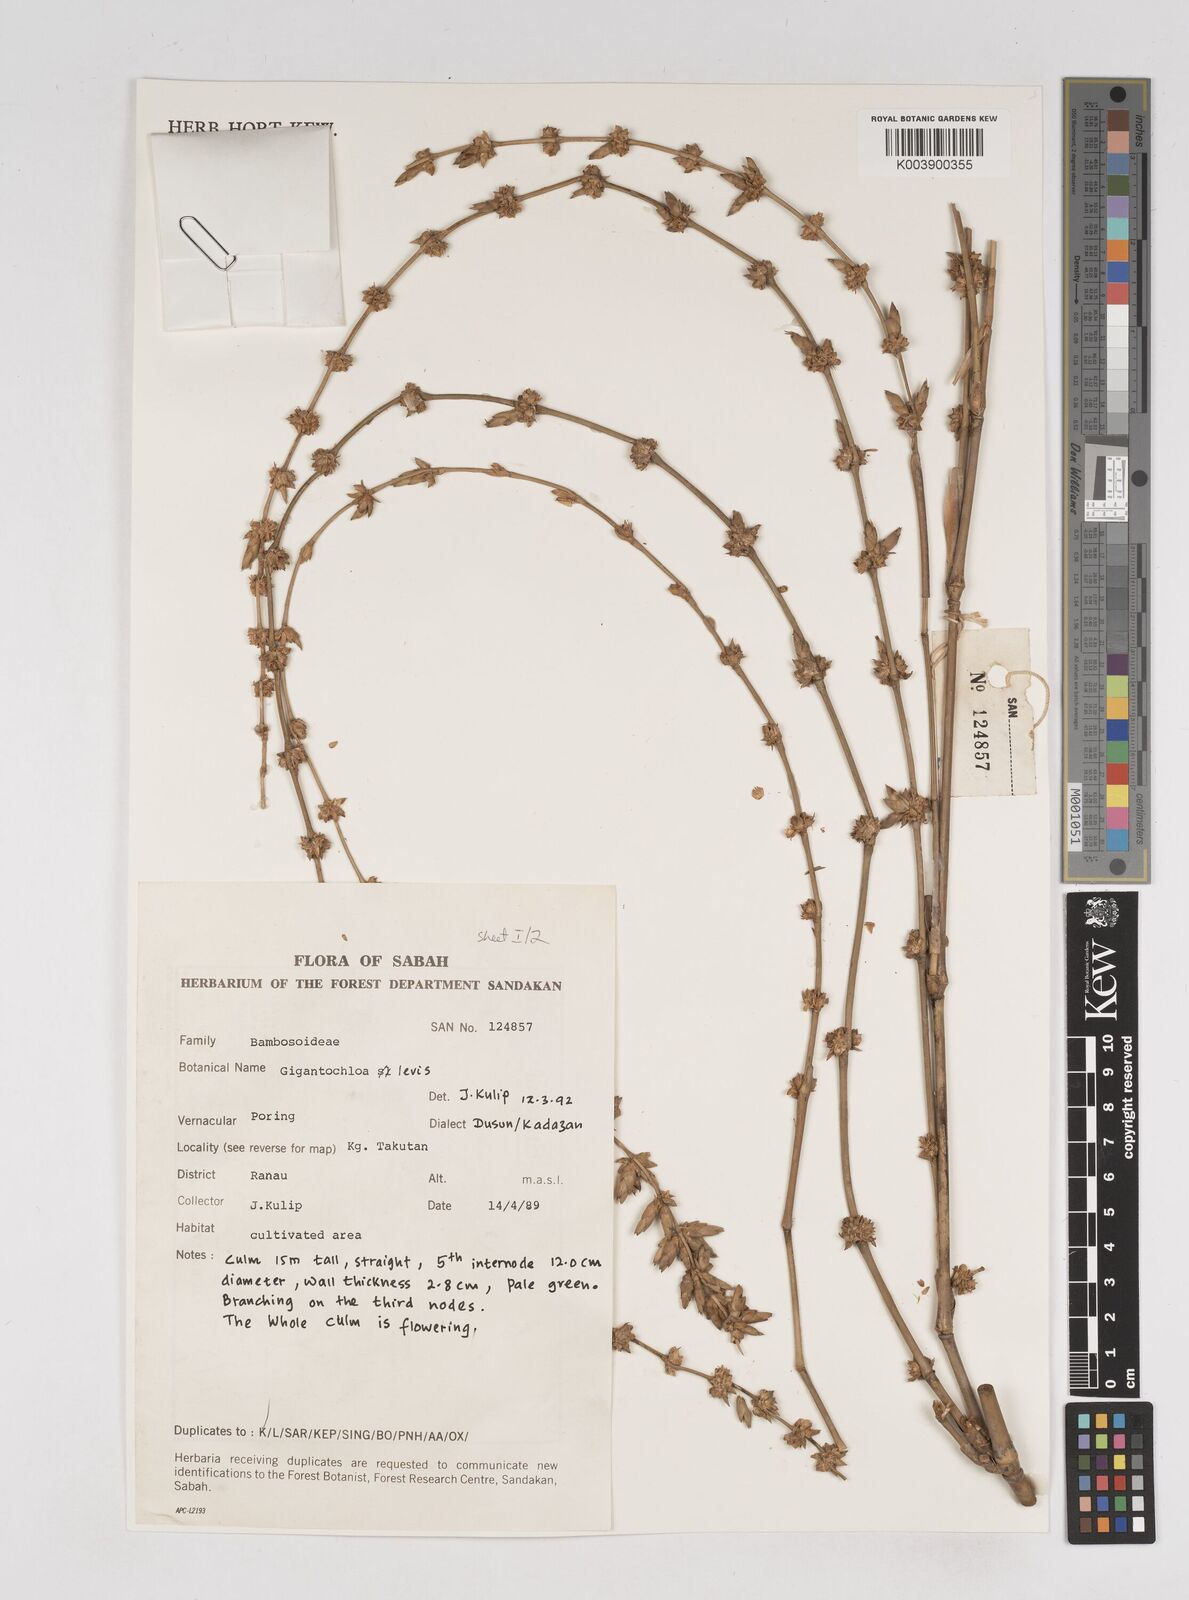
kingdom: Plantae
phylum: Tracheophyta
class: Liliopsida
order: Poales
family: Poaceae
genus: Gigantochloa
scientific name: Gigantochloa levis
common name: Smooth-shoot gigantochloa
